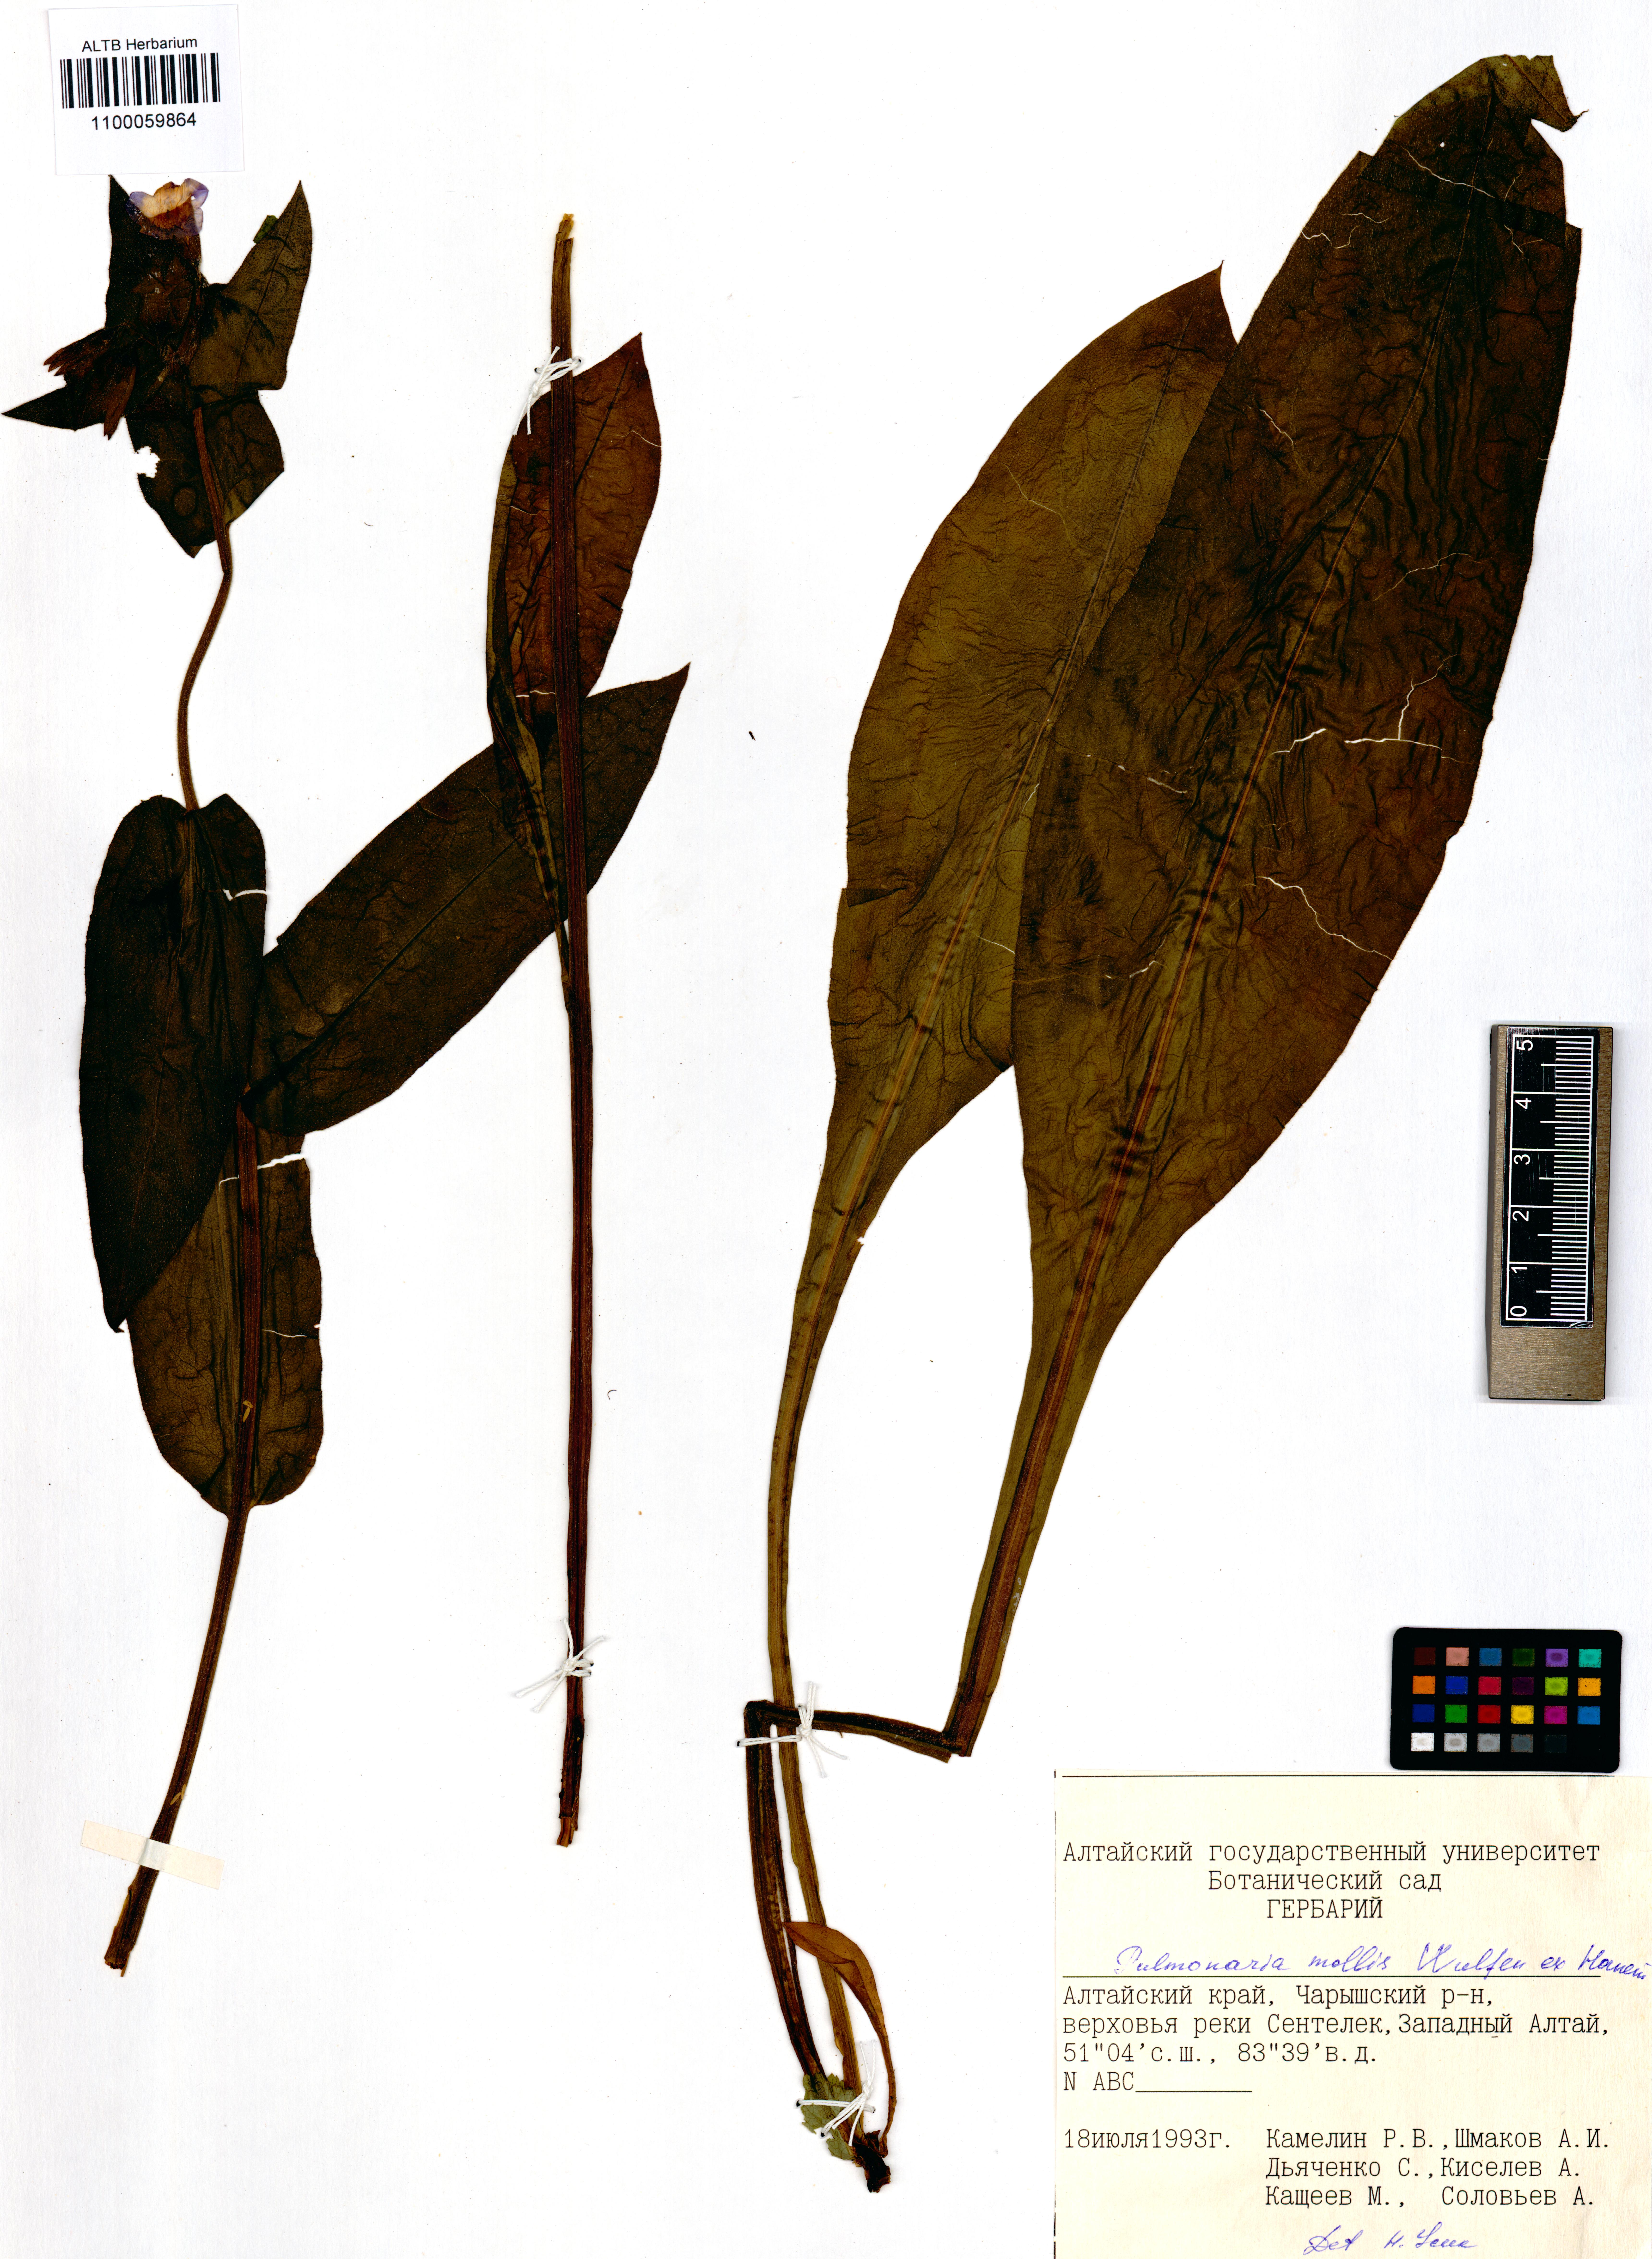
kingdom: Plantae
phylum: Tracheophyta
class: Magnoliopsida
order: Boraginales
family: Boraginaceae
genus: Pulmonaria
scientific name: Pulmonaria mollis
